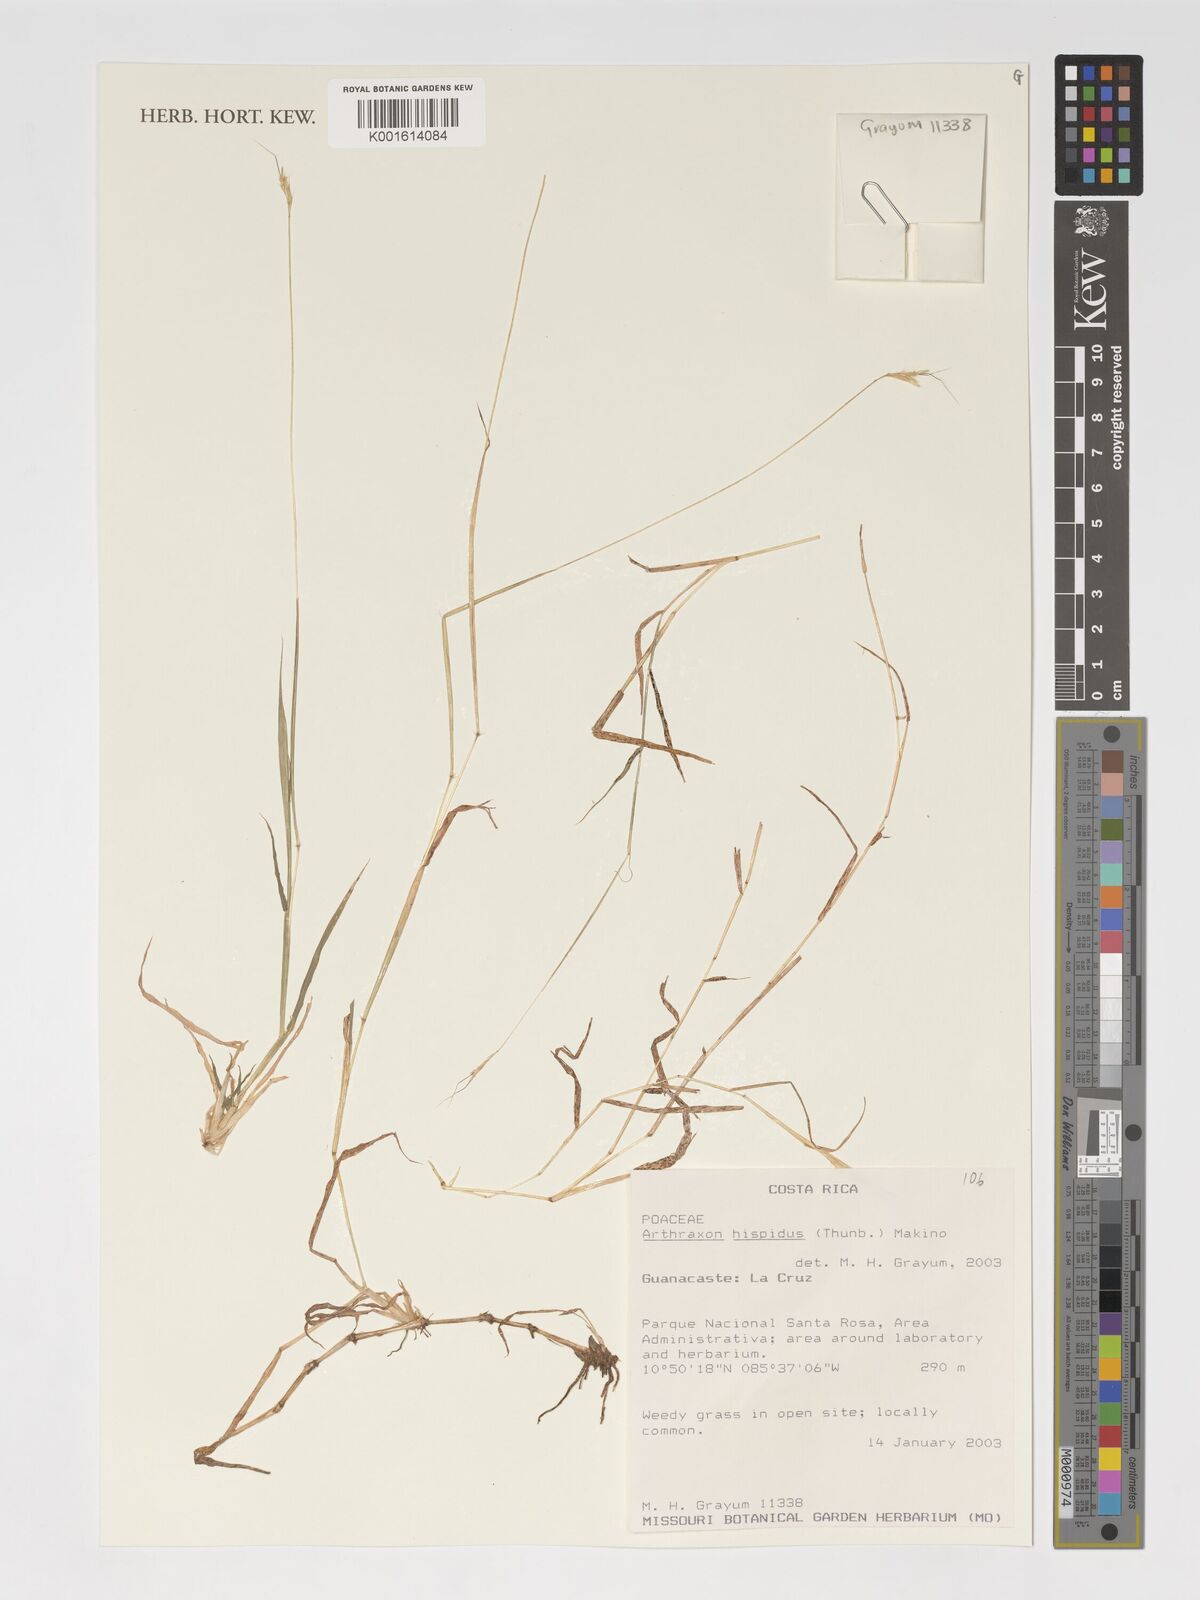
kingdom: Plantae
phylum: Tracheophyta
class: Liliopsida
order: Poales
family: Poaceae
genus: Arthraxon
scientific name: Arthraxon hispidus
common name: Small carpgrass
